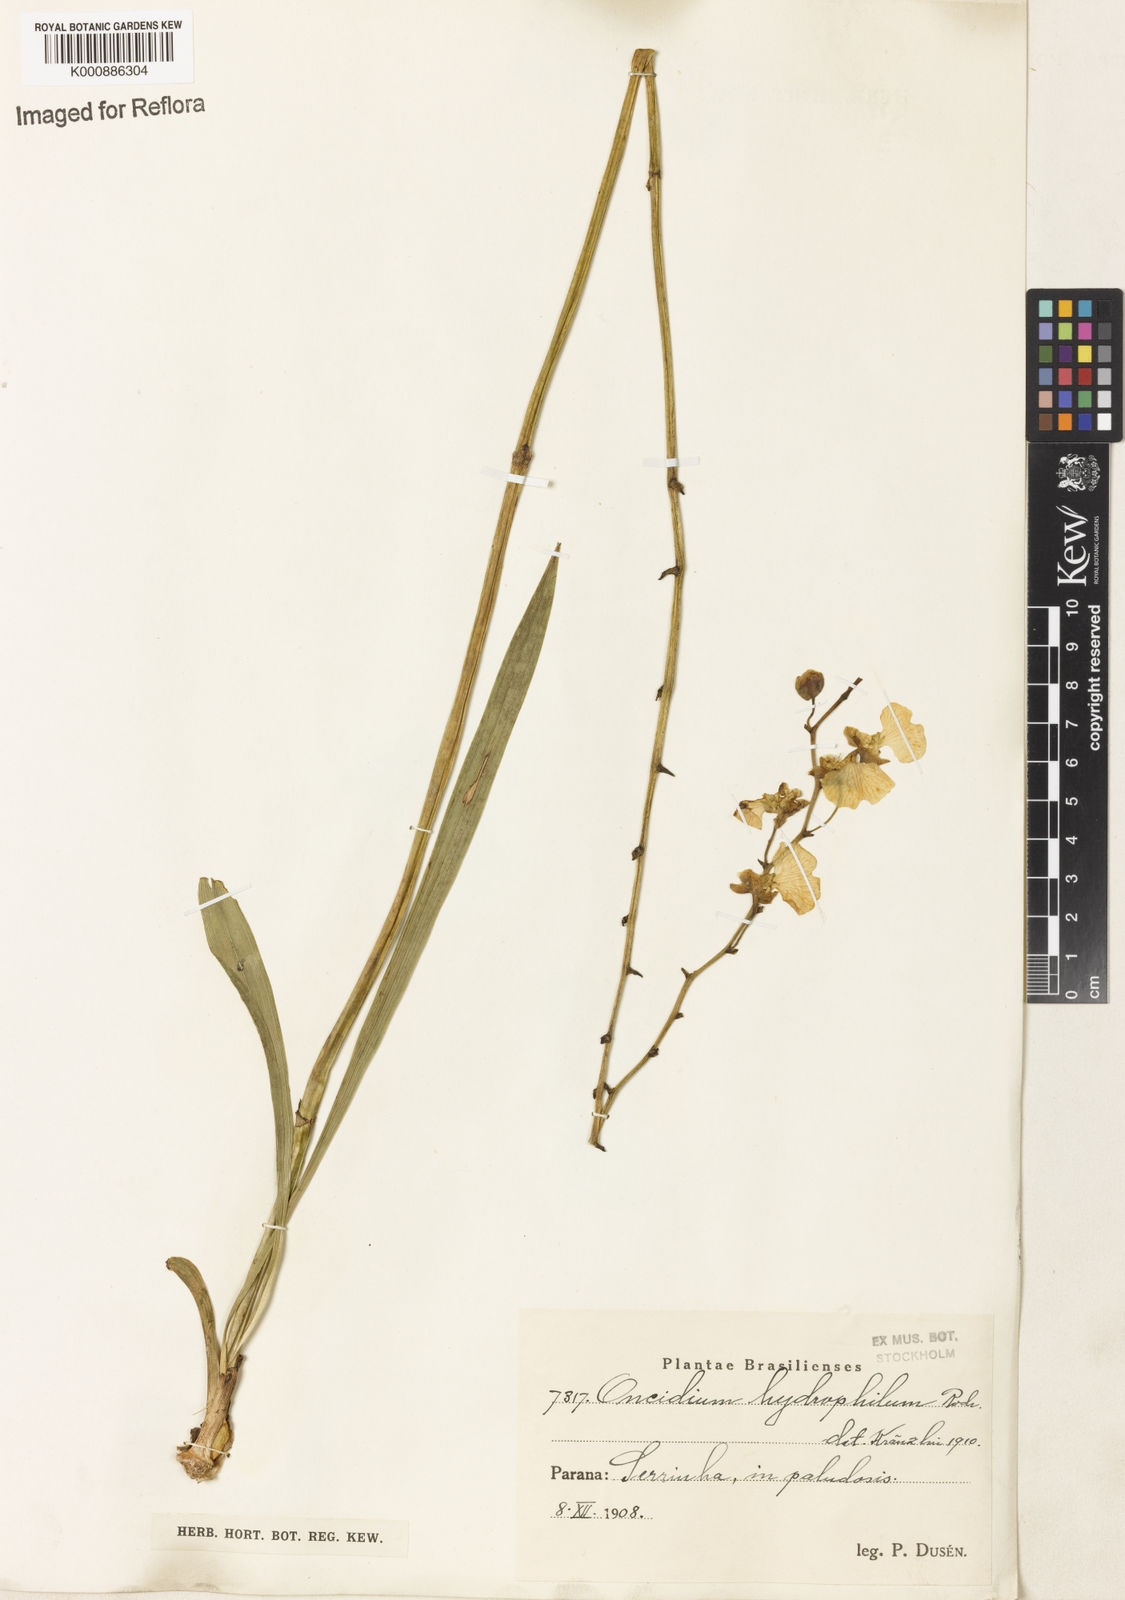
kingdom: Plantae
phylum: Tracheophyta
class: Liliopsida
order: Asparagales
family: Orchidaceae
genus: Gomesa
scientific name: Gomesa hydrophila
